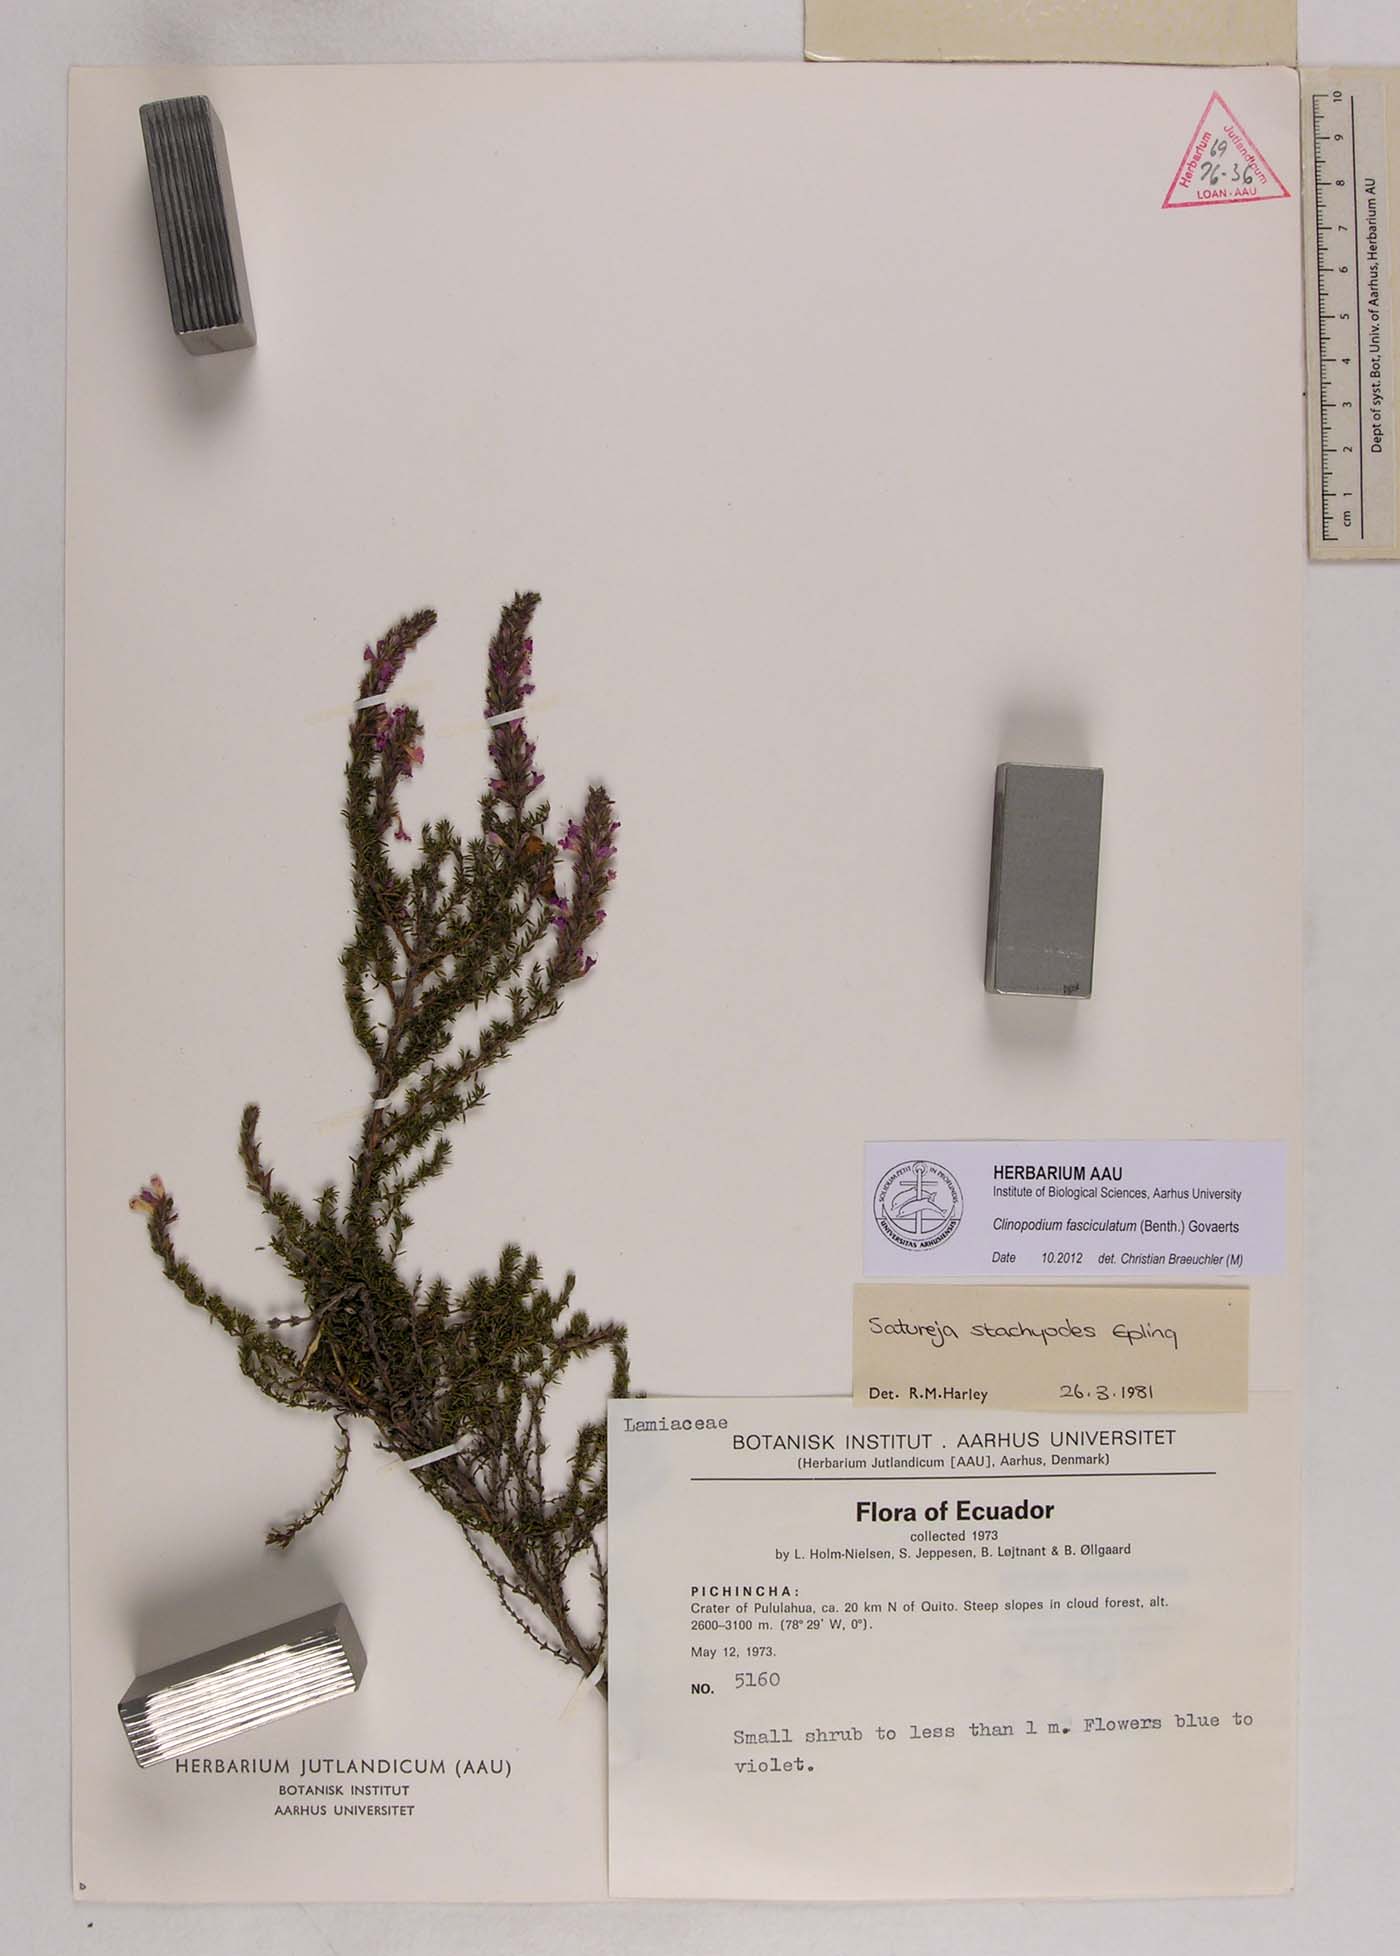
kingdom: Plantae
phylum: Tracheophyta
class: Magnoliopsida
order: Lamiales
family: Lamiaceae
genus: Clinopodium
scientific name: Clinopodium fasciculatum
